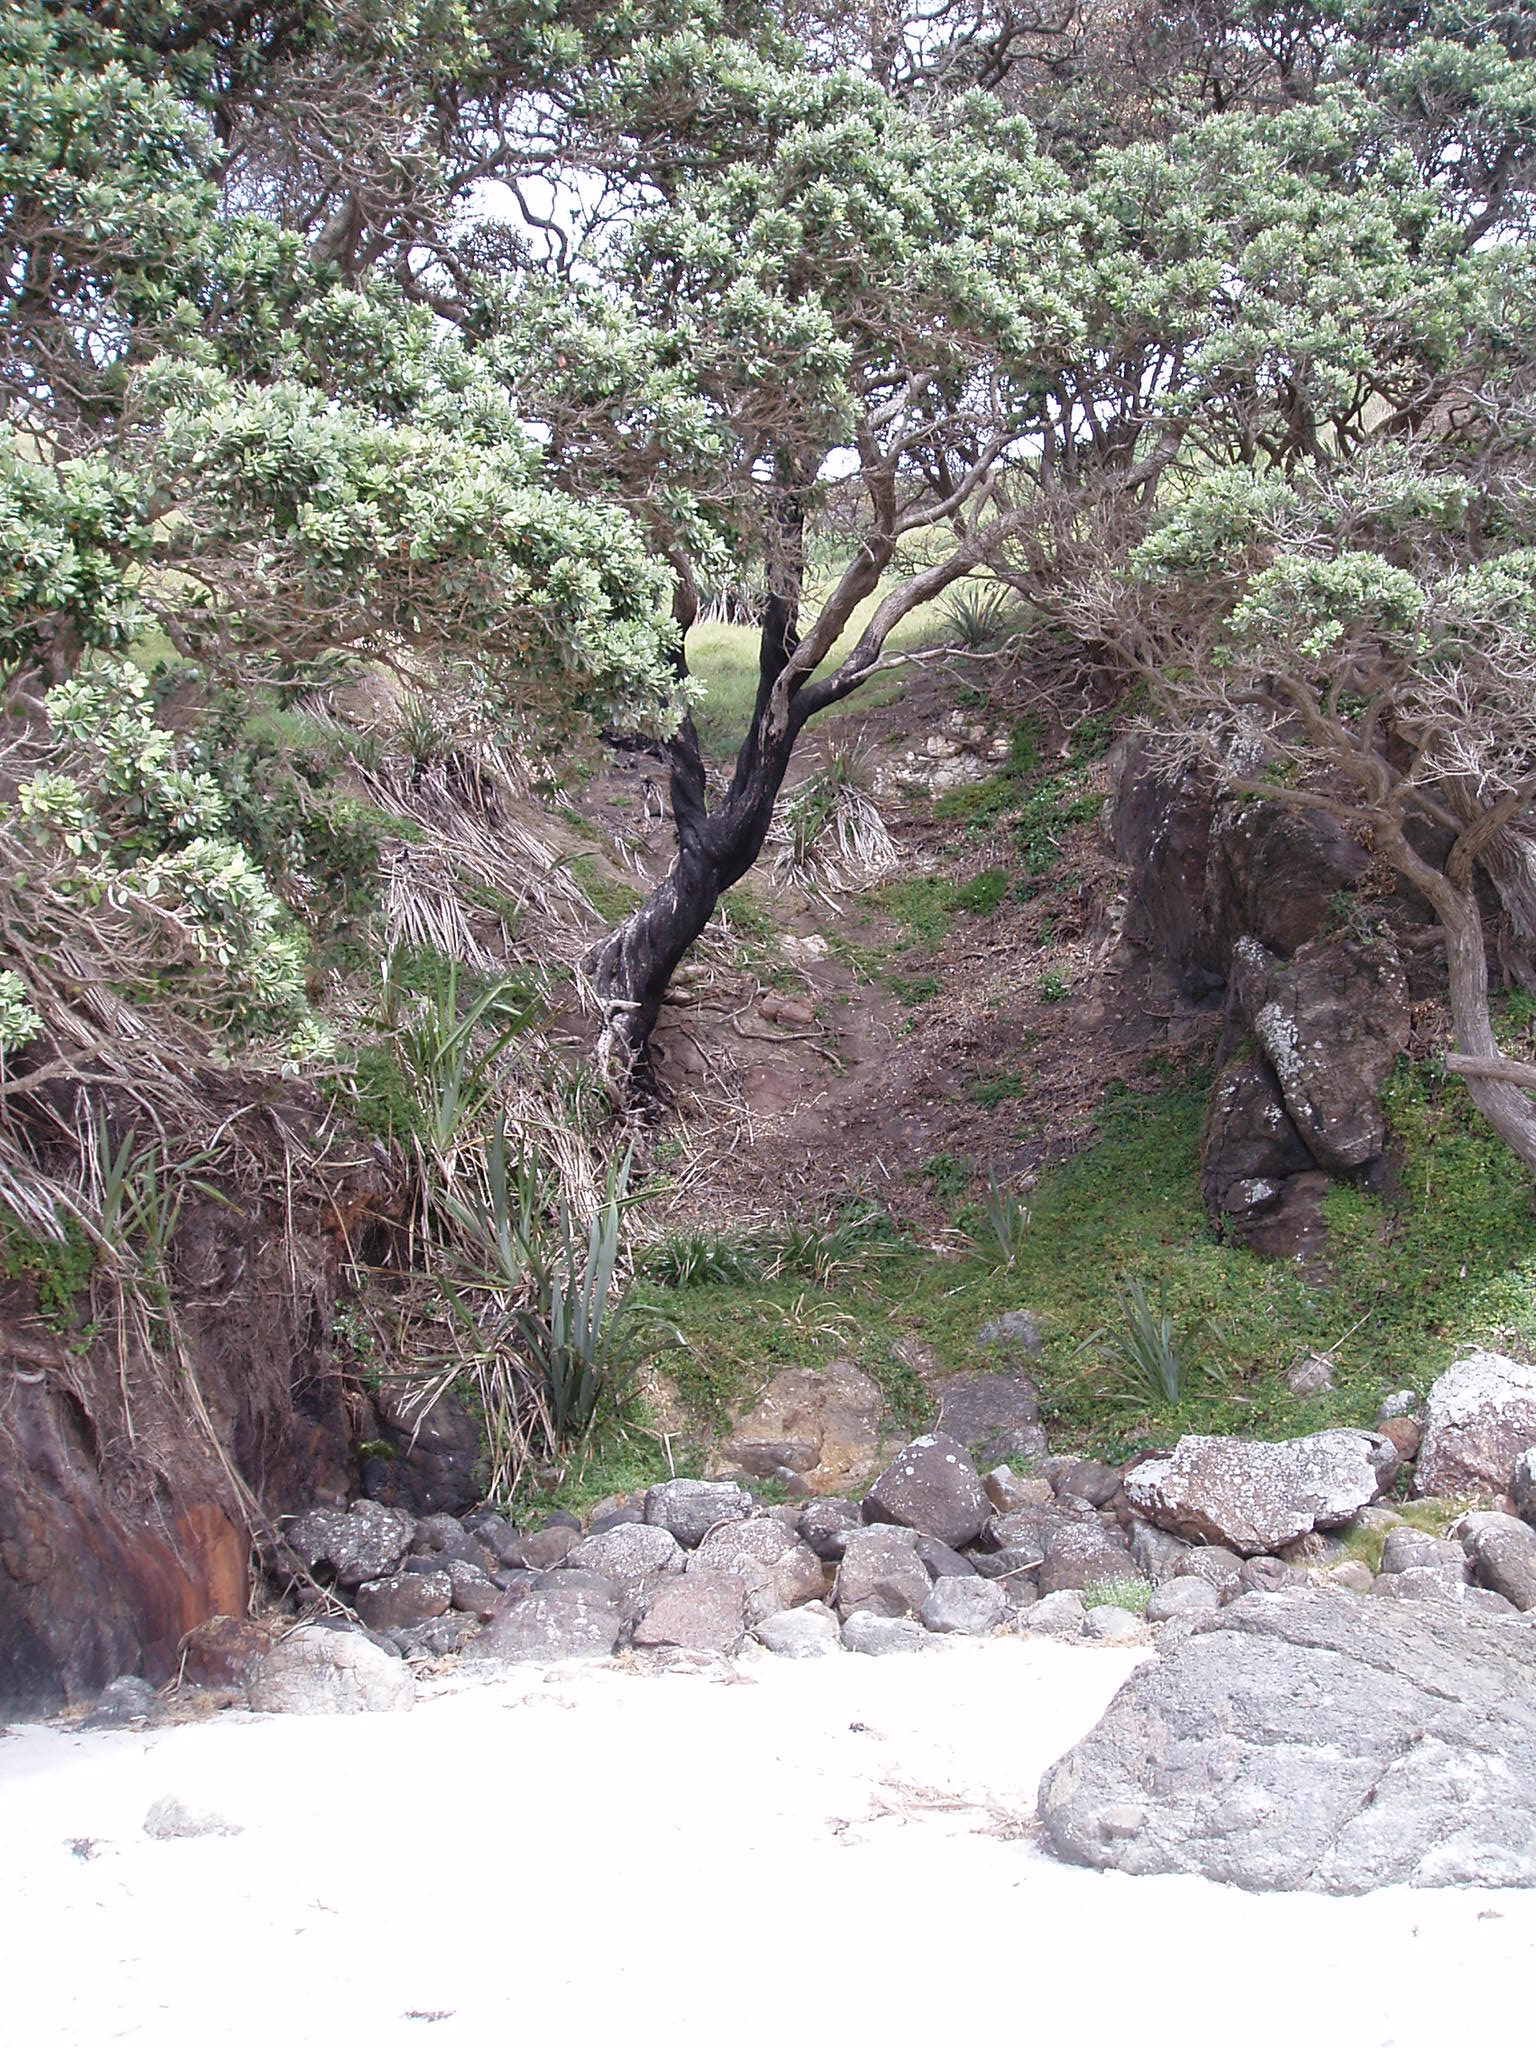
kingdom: Plantae
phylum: Tracheophyta
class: Liliopsida
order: Poales
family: Cyperaceae
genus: Cyperus
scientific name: Cyperus insularis
